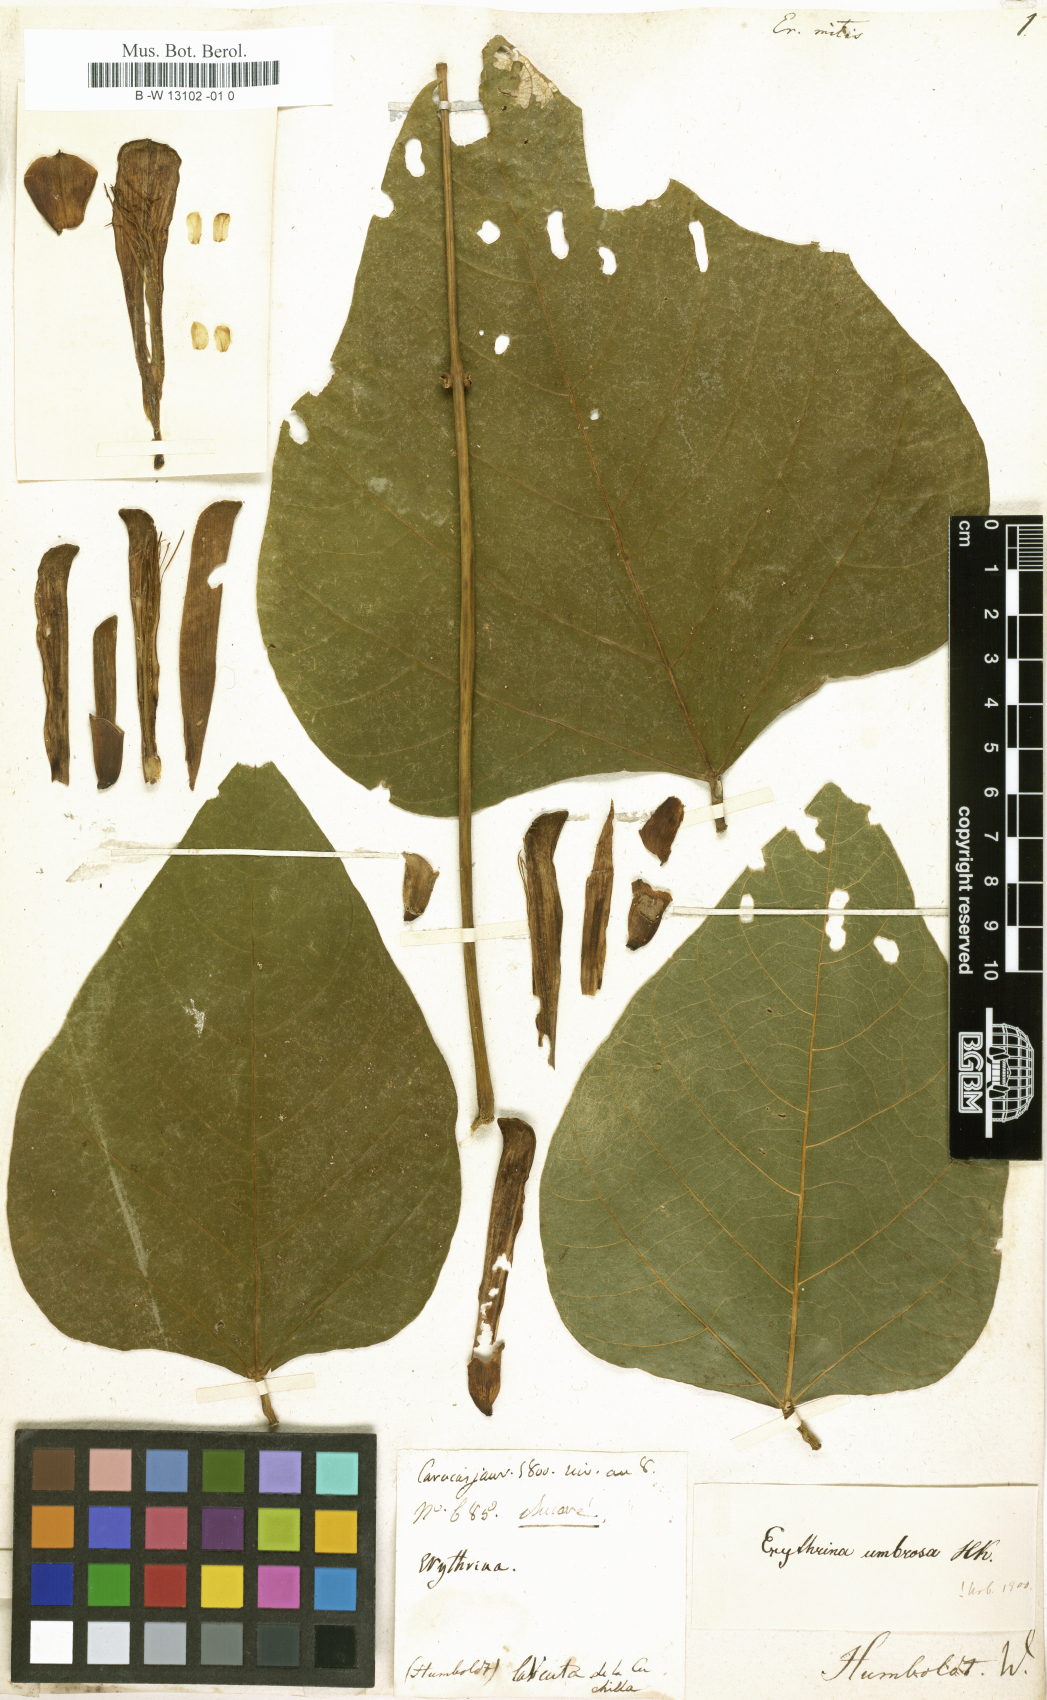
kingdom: Plantae
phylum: Tracheophyta
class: Magnoliopsida
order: Fabales
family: Fabaceae
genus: Erythrina
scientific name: Erythrina mitis
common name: Mortel
